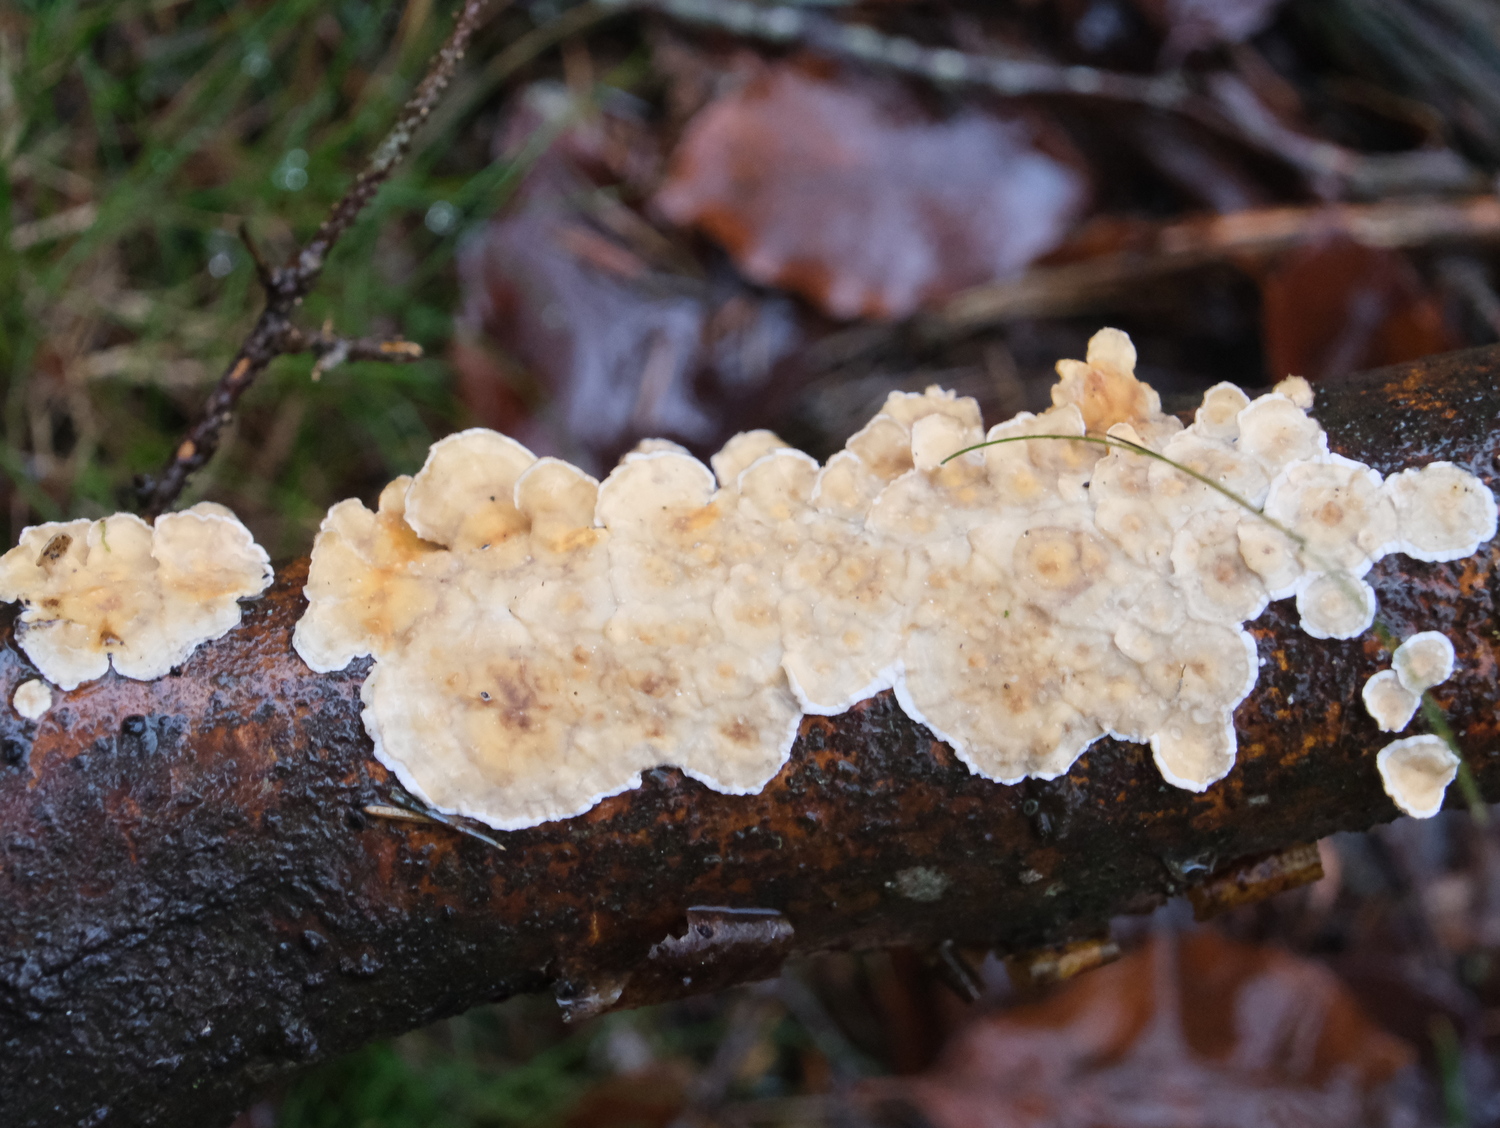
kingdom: Fungi
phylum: Basidiomycota
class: Agaricomycetes
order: Russulales
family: Stereaceae
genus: Stereum
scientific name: Stereum hirsutum
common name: håret lædersvamp
